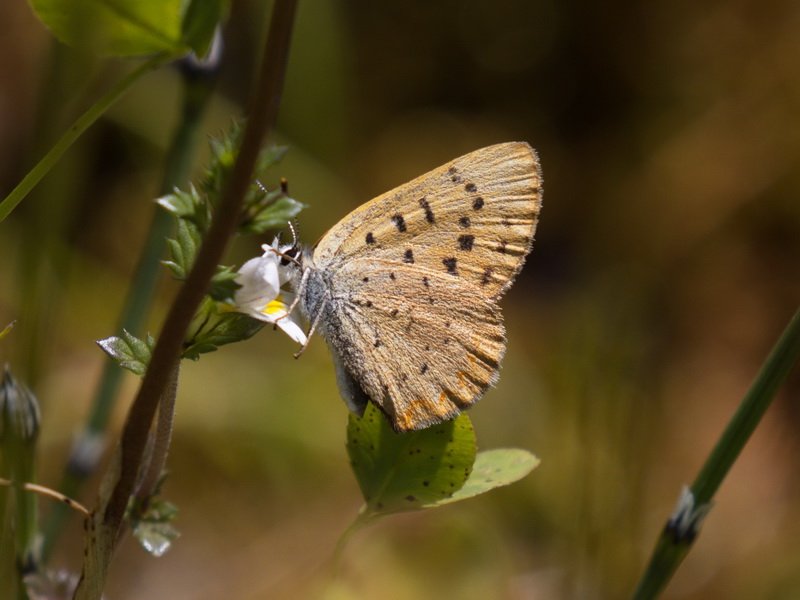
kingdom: Animalia
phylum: Arthropoda
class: Insecta
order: Lepidoptera
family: Lycaenidae
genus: Epidemia
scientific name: Epidemia dorcas
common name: Dorcas Copper
